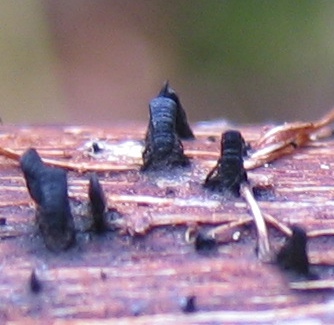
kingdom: Fungi
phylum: Ascomycota
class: Eurotiomycetes
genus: Glyphium
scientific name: Glyphium elatum
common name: kuløkse
